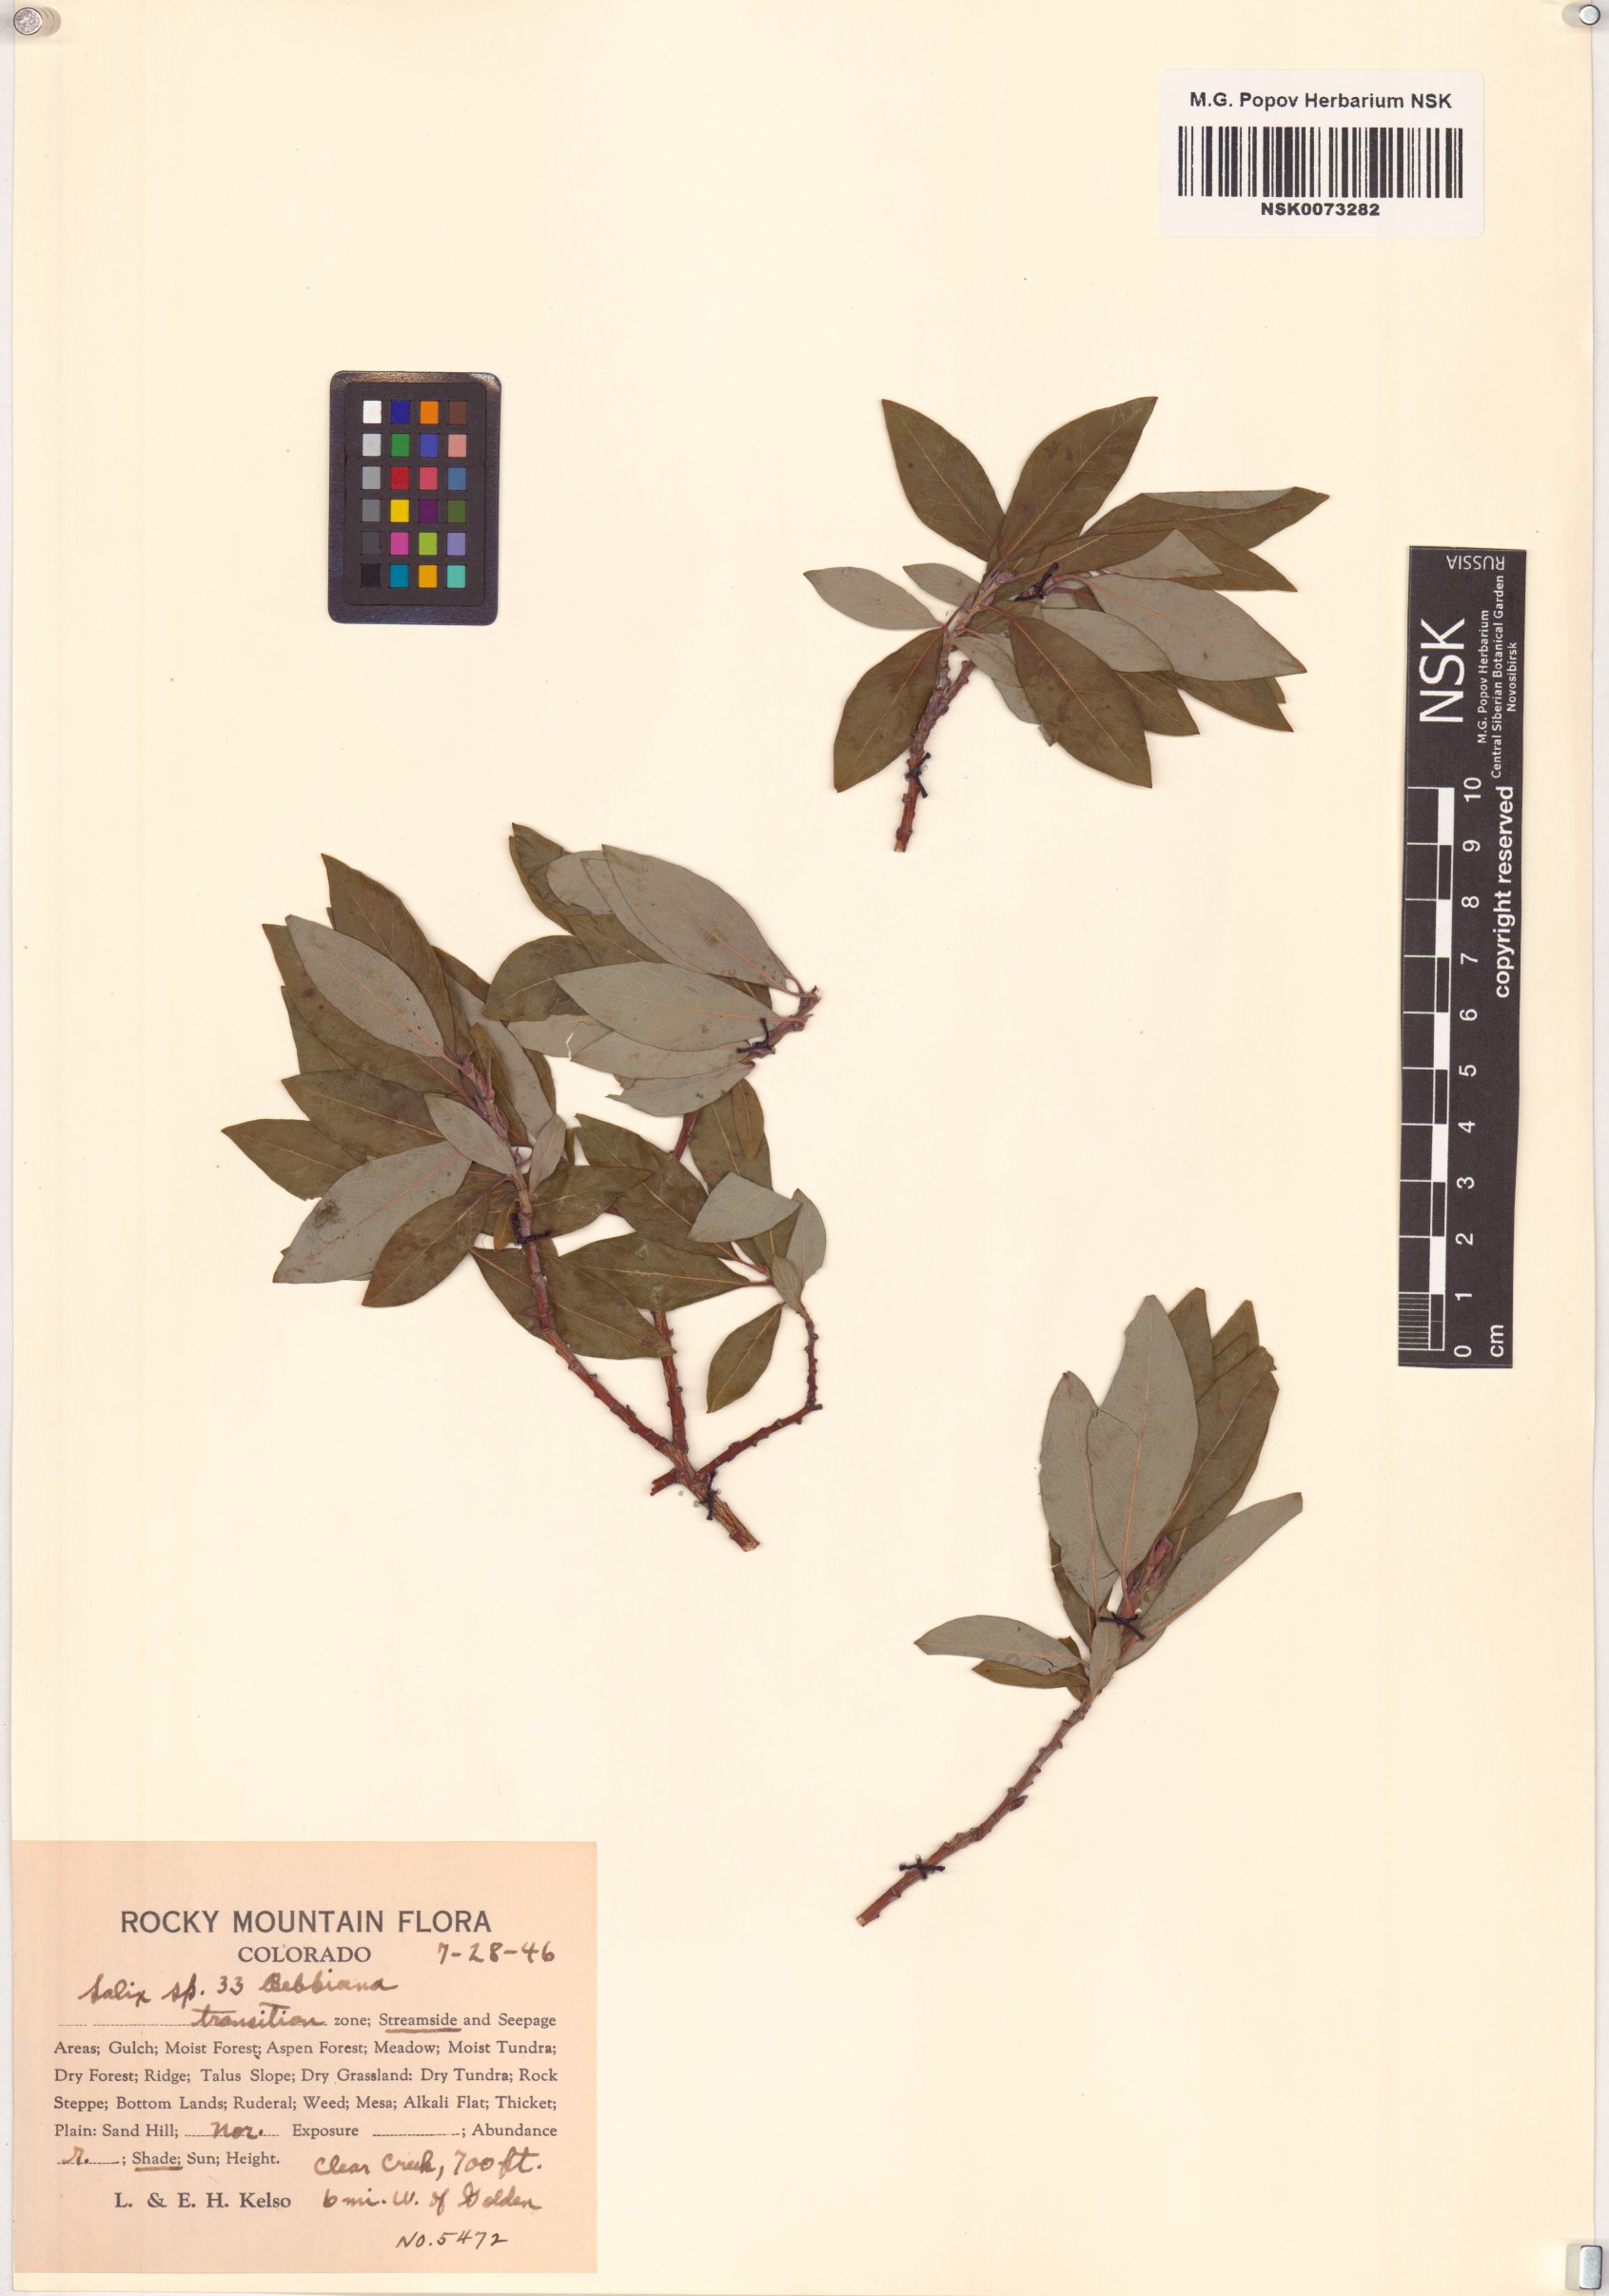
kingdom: Plantae
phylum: Tracheophyta
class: Magnoliopsida
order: Malpighiales
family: Salicaceae
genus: Salix
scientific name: Salix bebbiana
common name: Bebb's willow
